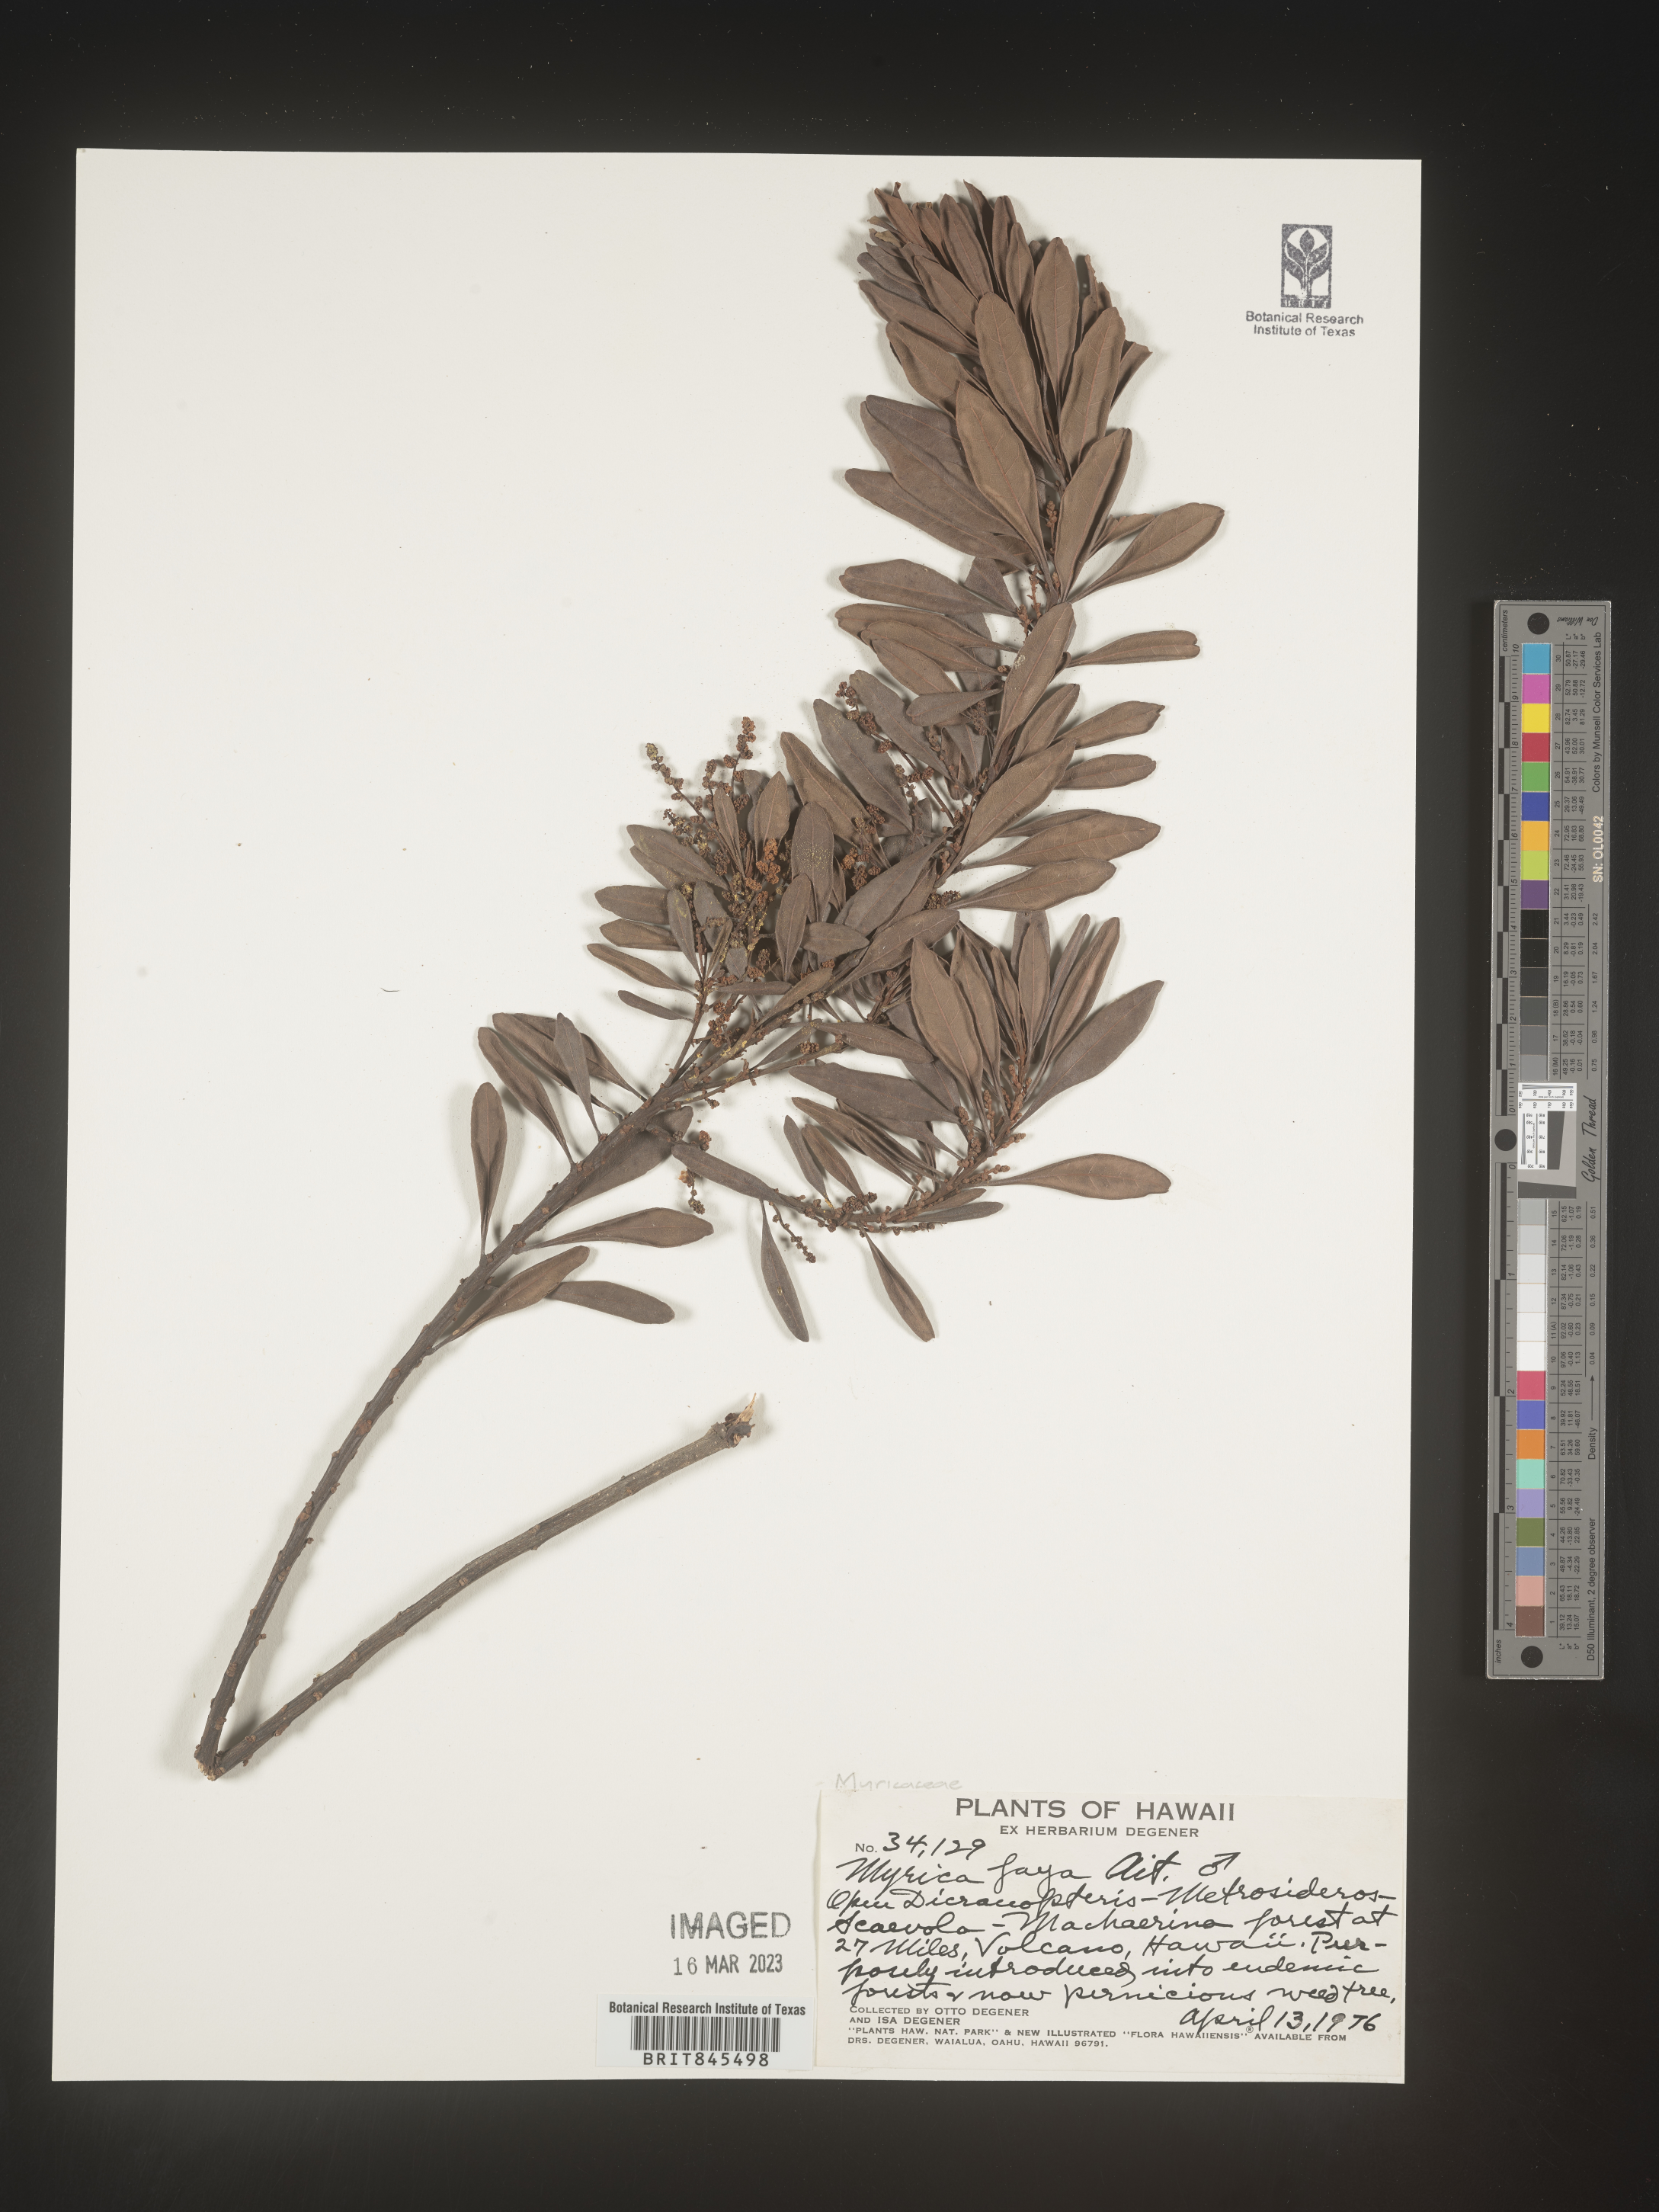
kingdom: Plantae
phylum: Tracheophyta
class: Magnoliopsida
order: Fagales
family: Myricaceae
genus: Myrica
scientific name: Myrica
